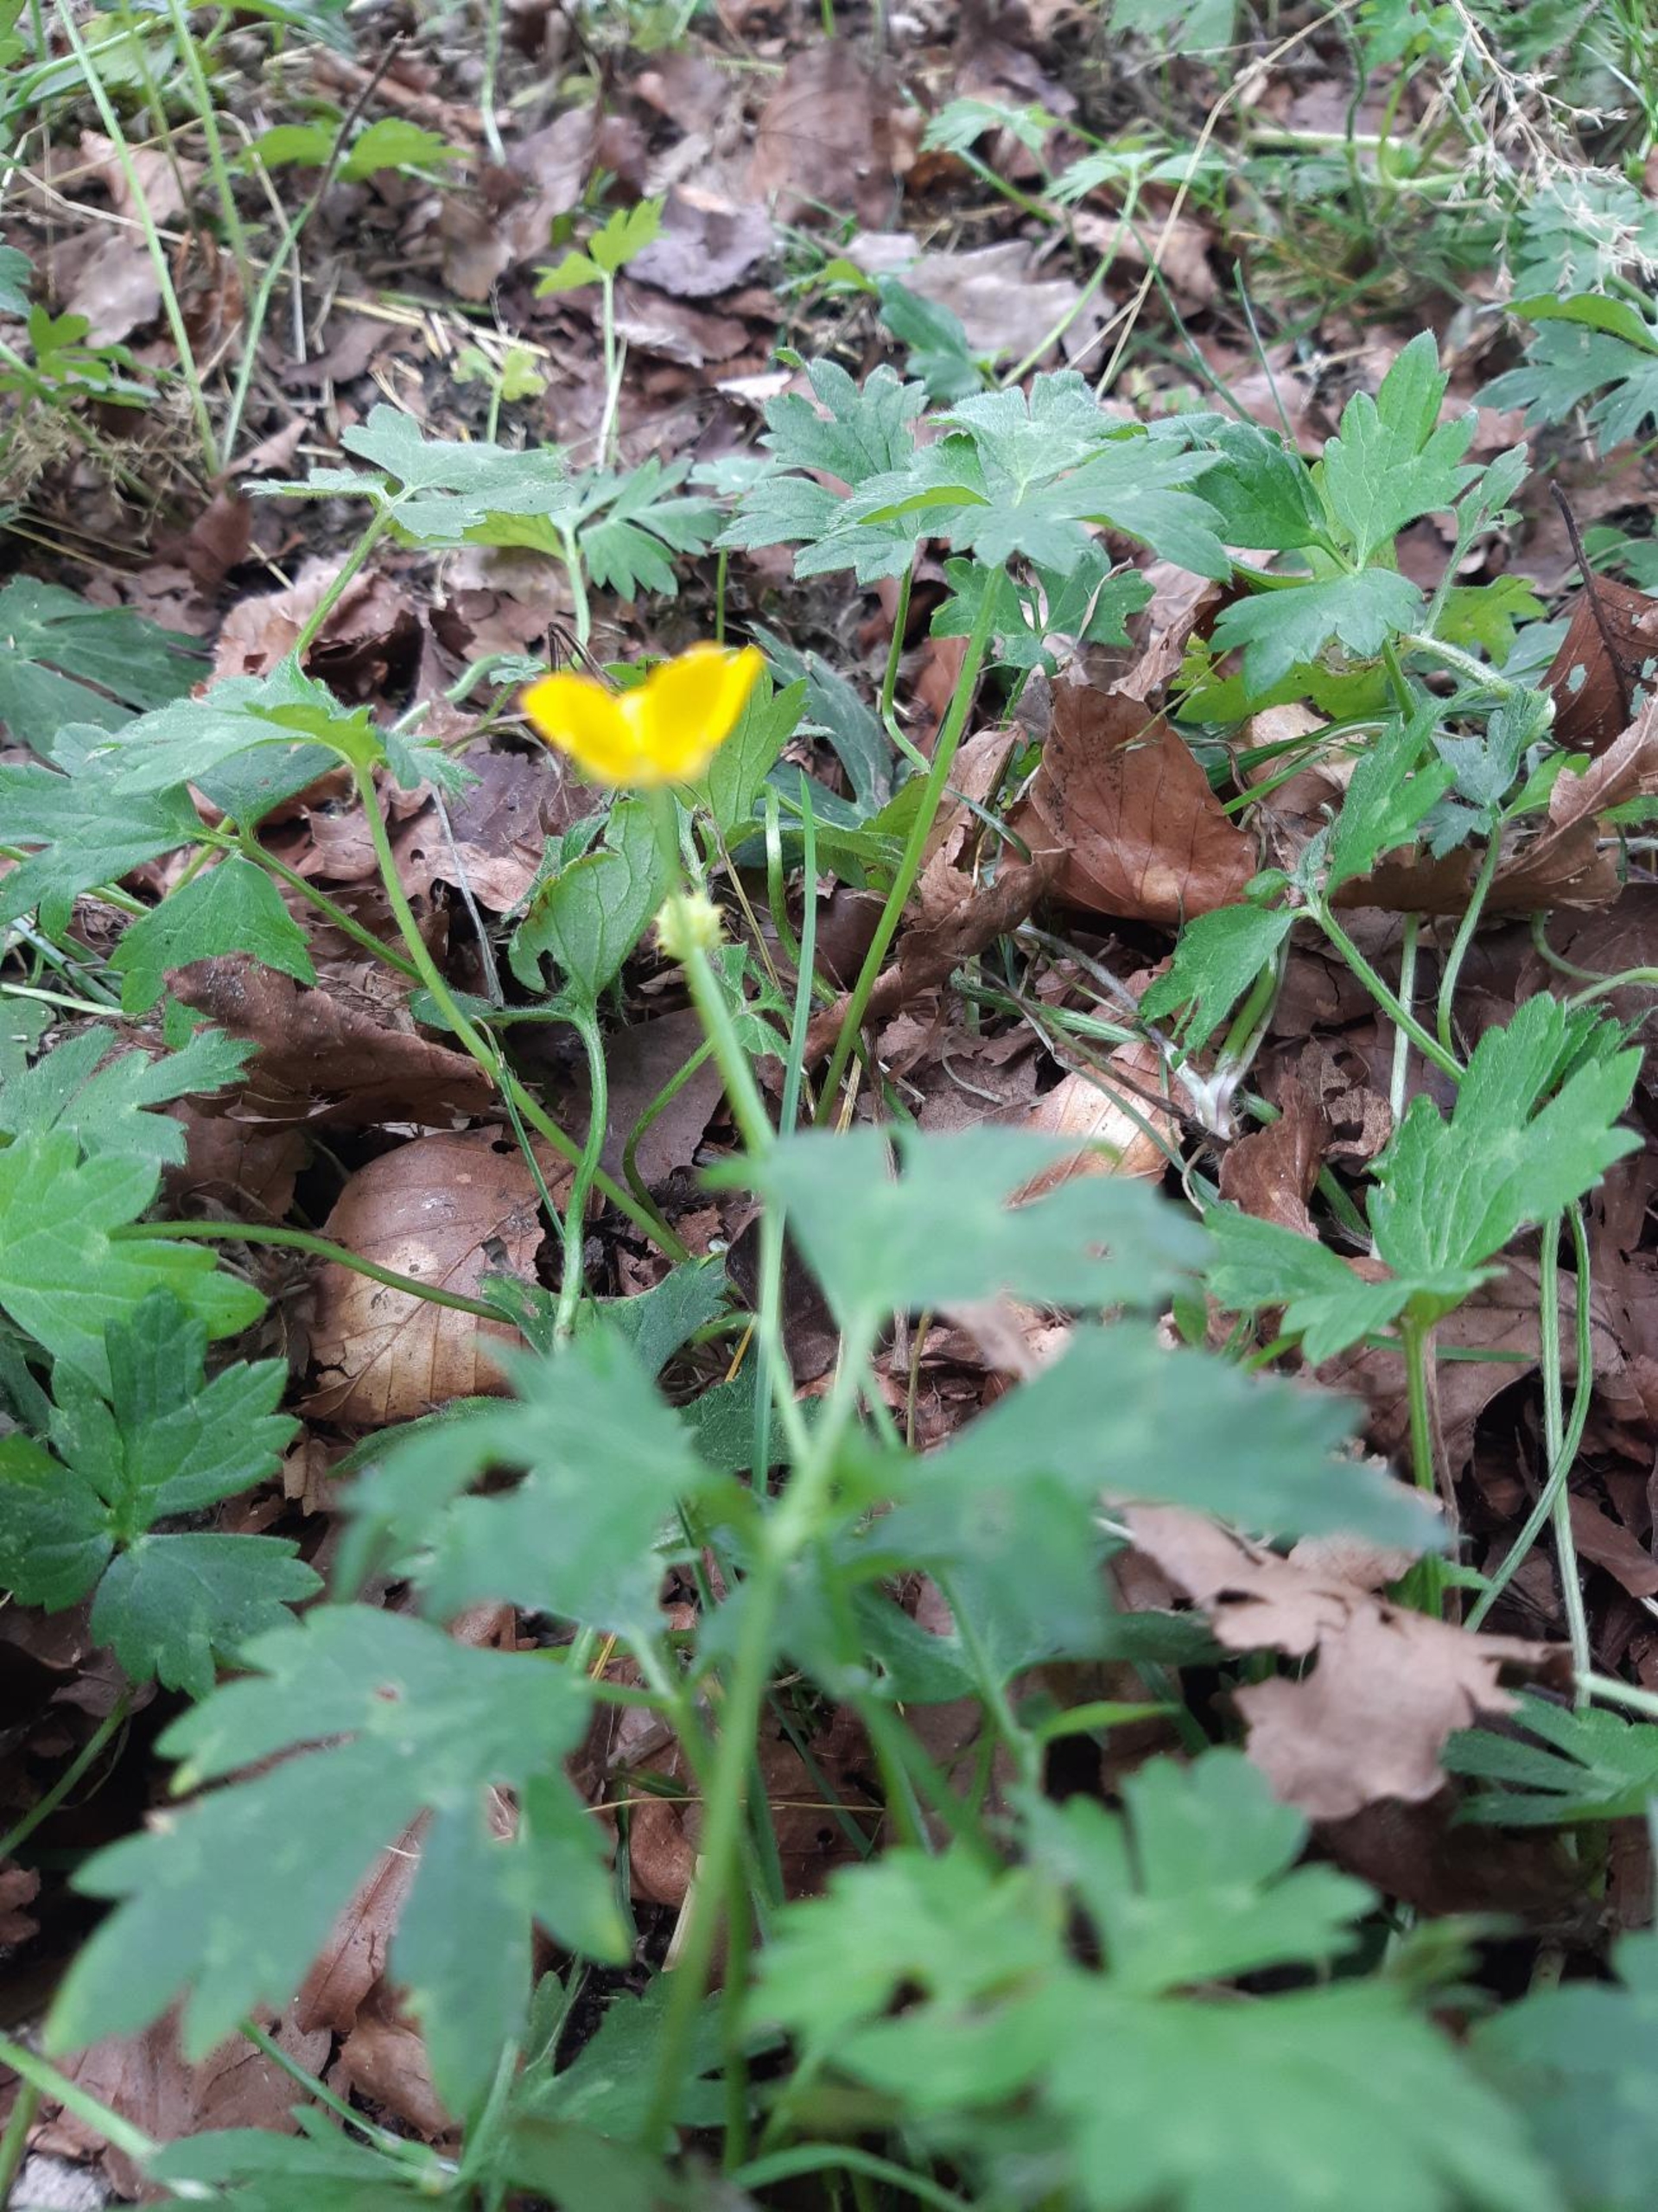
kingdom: Plantae
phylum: Tracheophyta
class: Magnoliopsida
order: Ranunculales
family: Ranunculaceae
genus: Ranunculus
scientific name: Ranunculus repens
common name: Lav ranunkel
